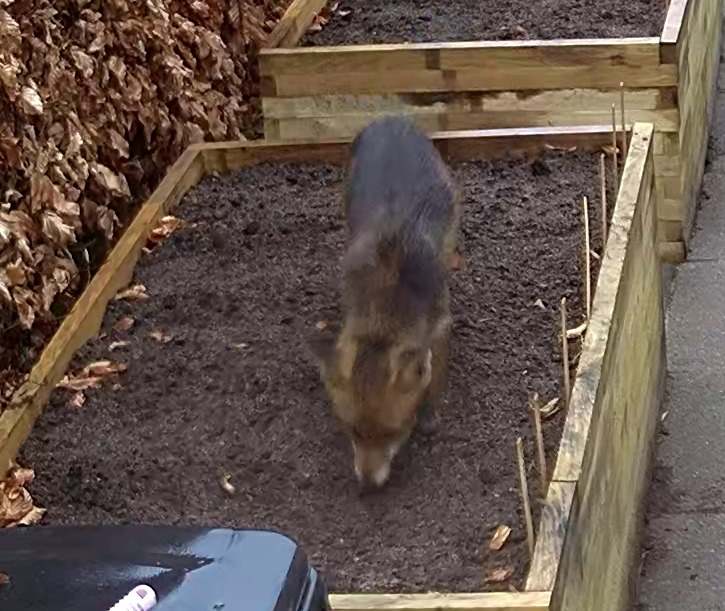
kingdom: Animalia
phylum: Chordata
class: Mammalia
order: Carnivora
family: Canidae
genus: Vulpes
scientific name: Vulpes vulpes
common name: Ræv
